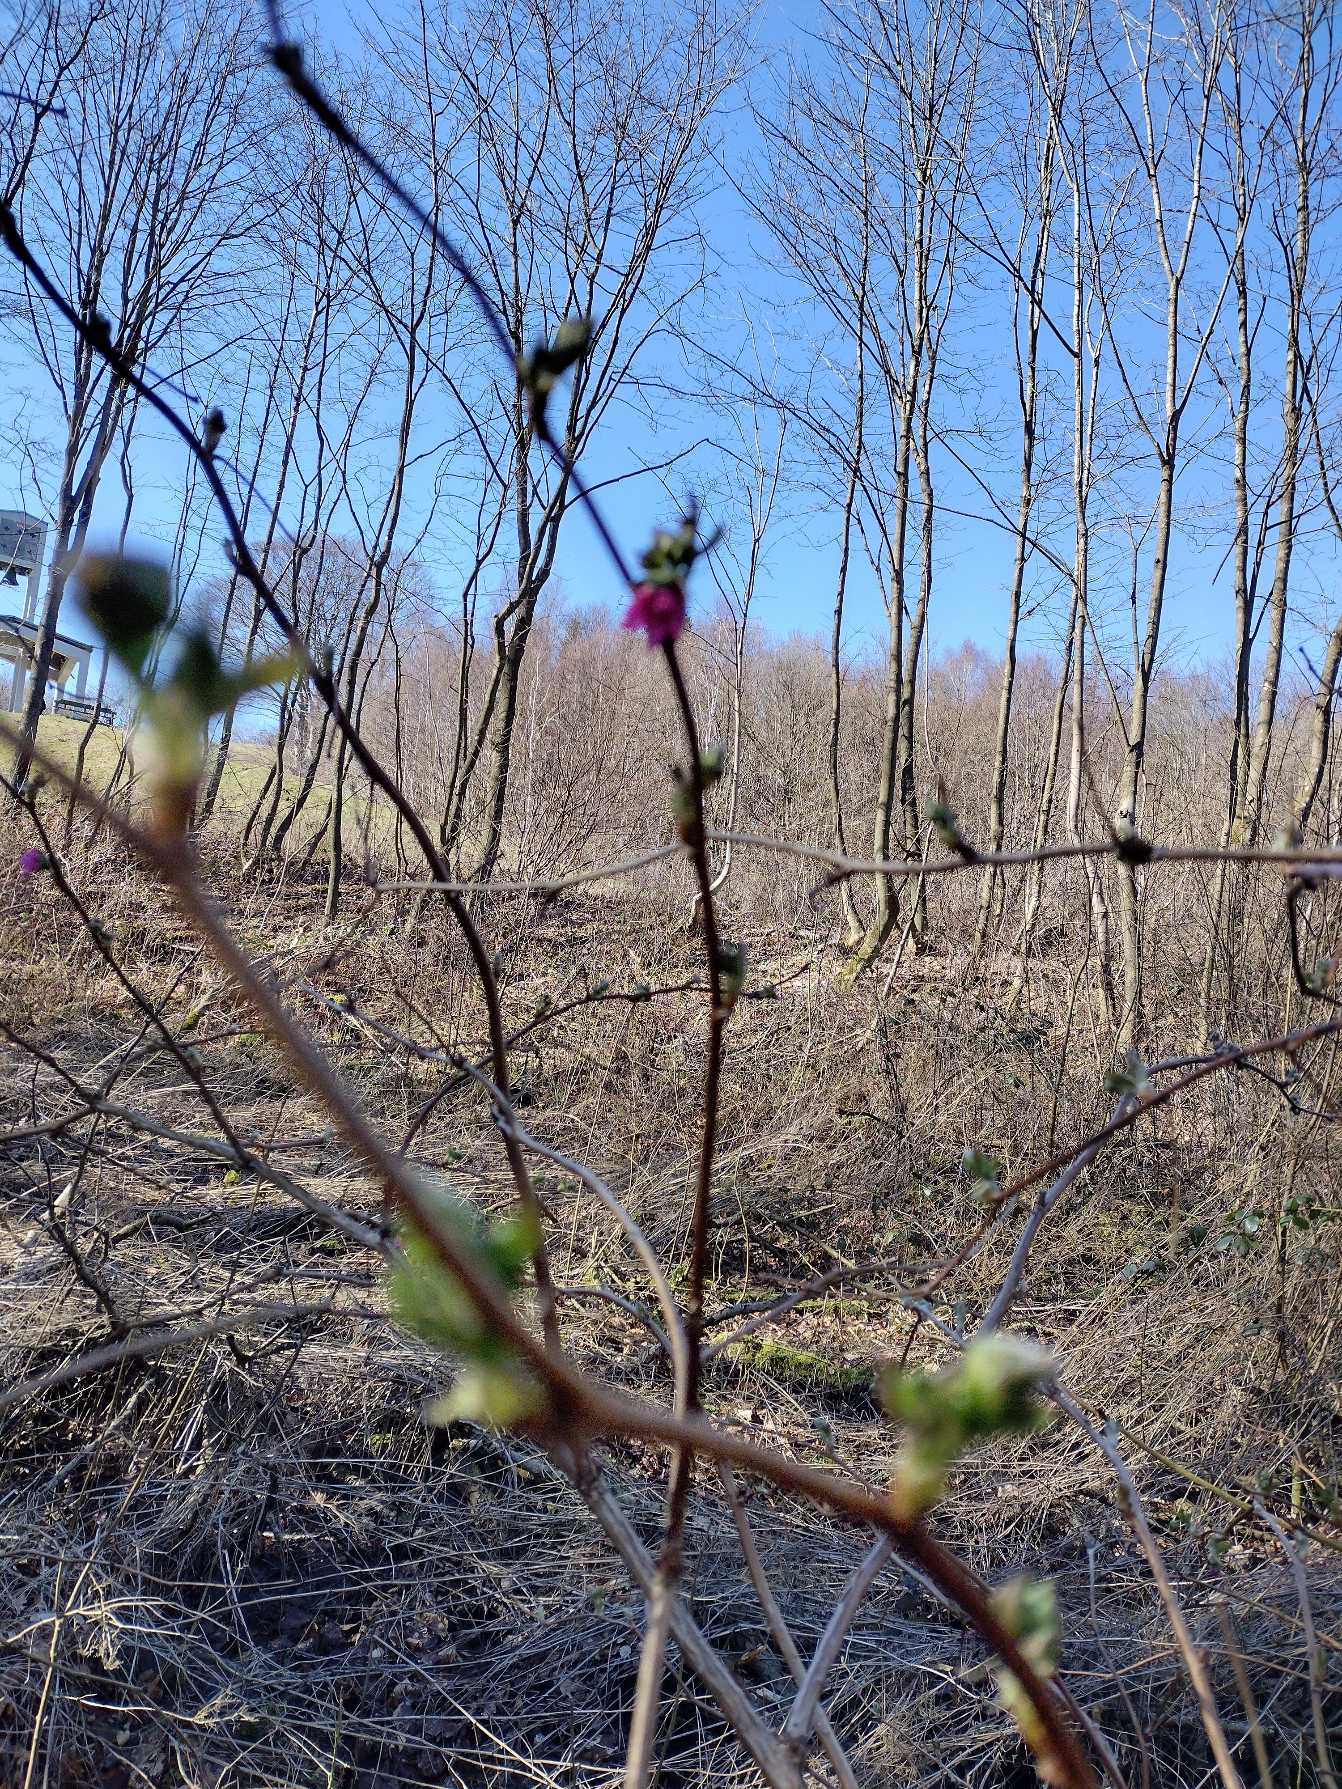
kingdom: Plantae
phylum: Tracheophyta
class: Magnoliopsida
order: Rosales
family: Rosaceae
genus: Rubus
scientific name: Rubus spectabilis
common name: Laksebær
